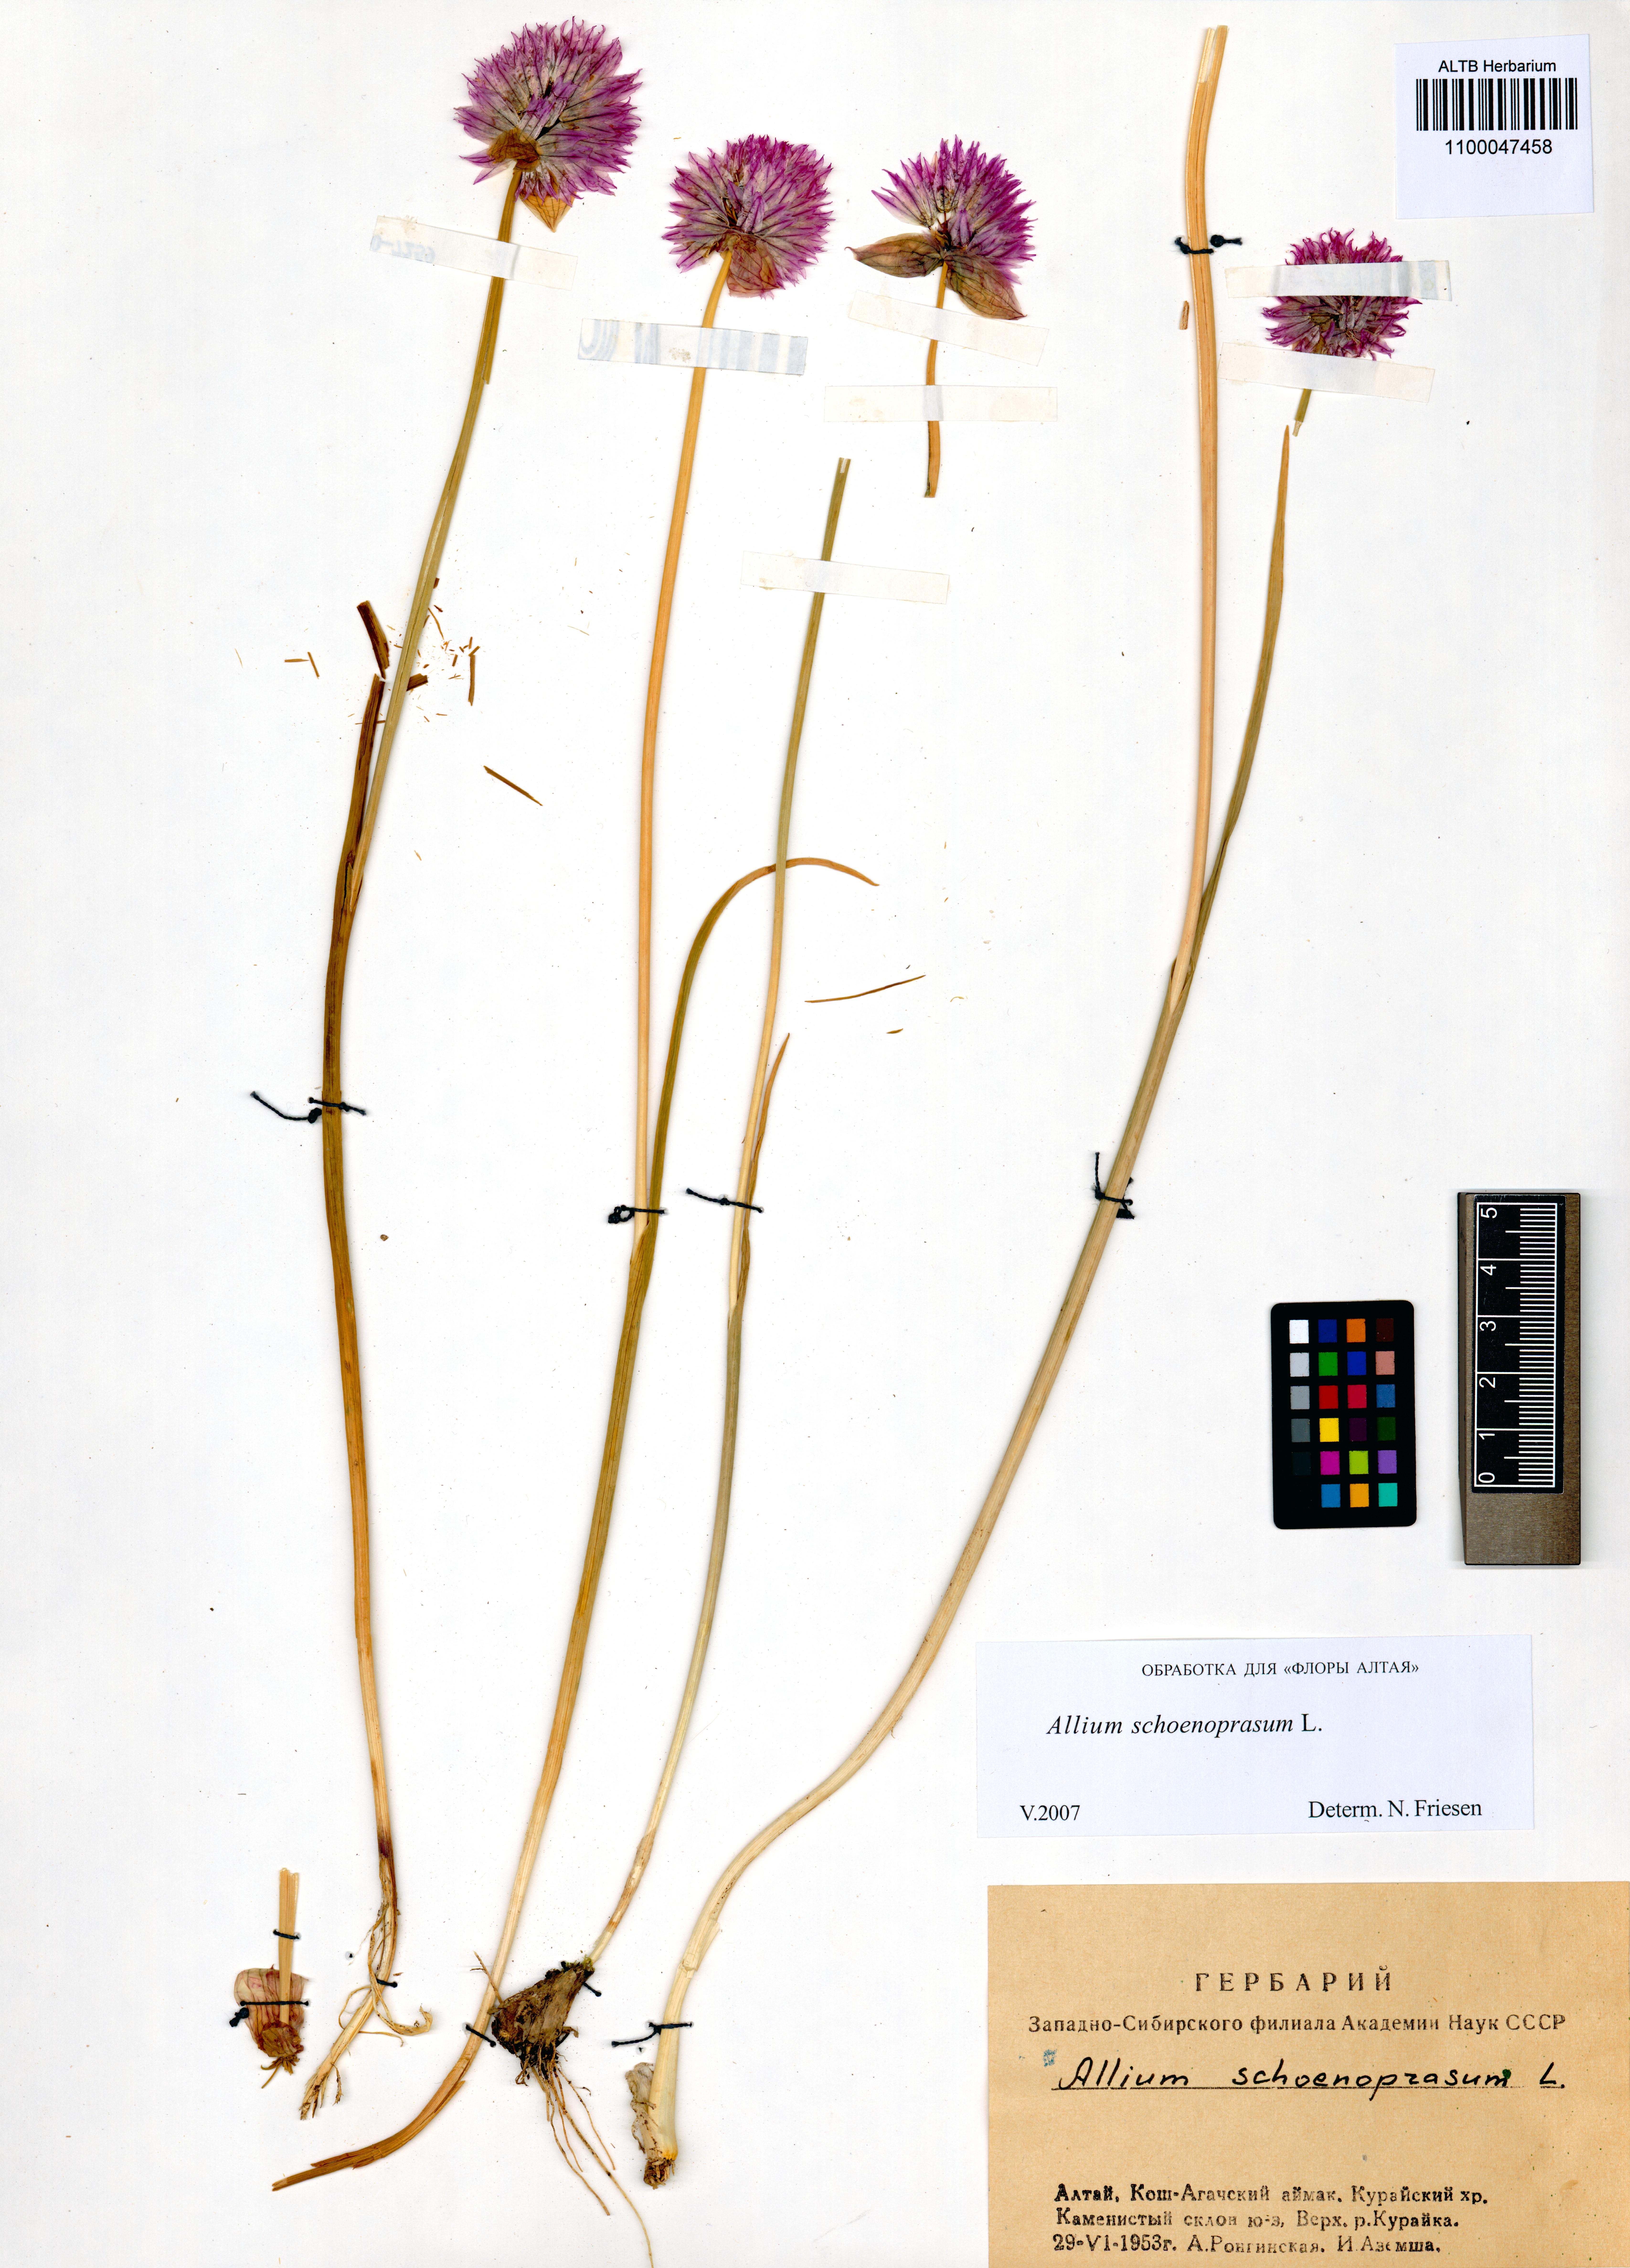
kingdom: Plantae
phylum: Tracheophyta
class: Liliopsida
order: Asparagales
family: Amaryllidaceae
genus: Allium
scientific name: Allium schoenoprasum
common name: Chives
